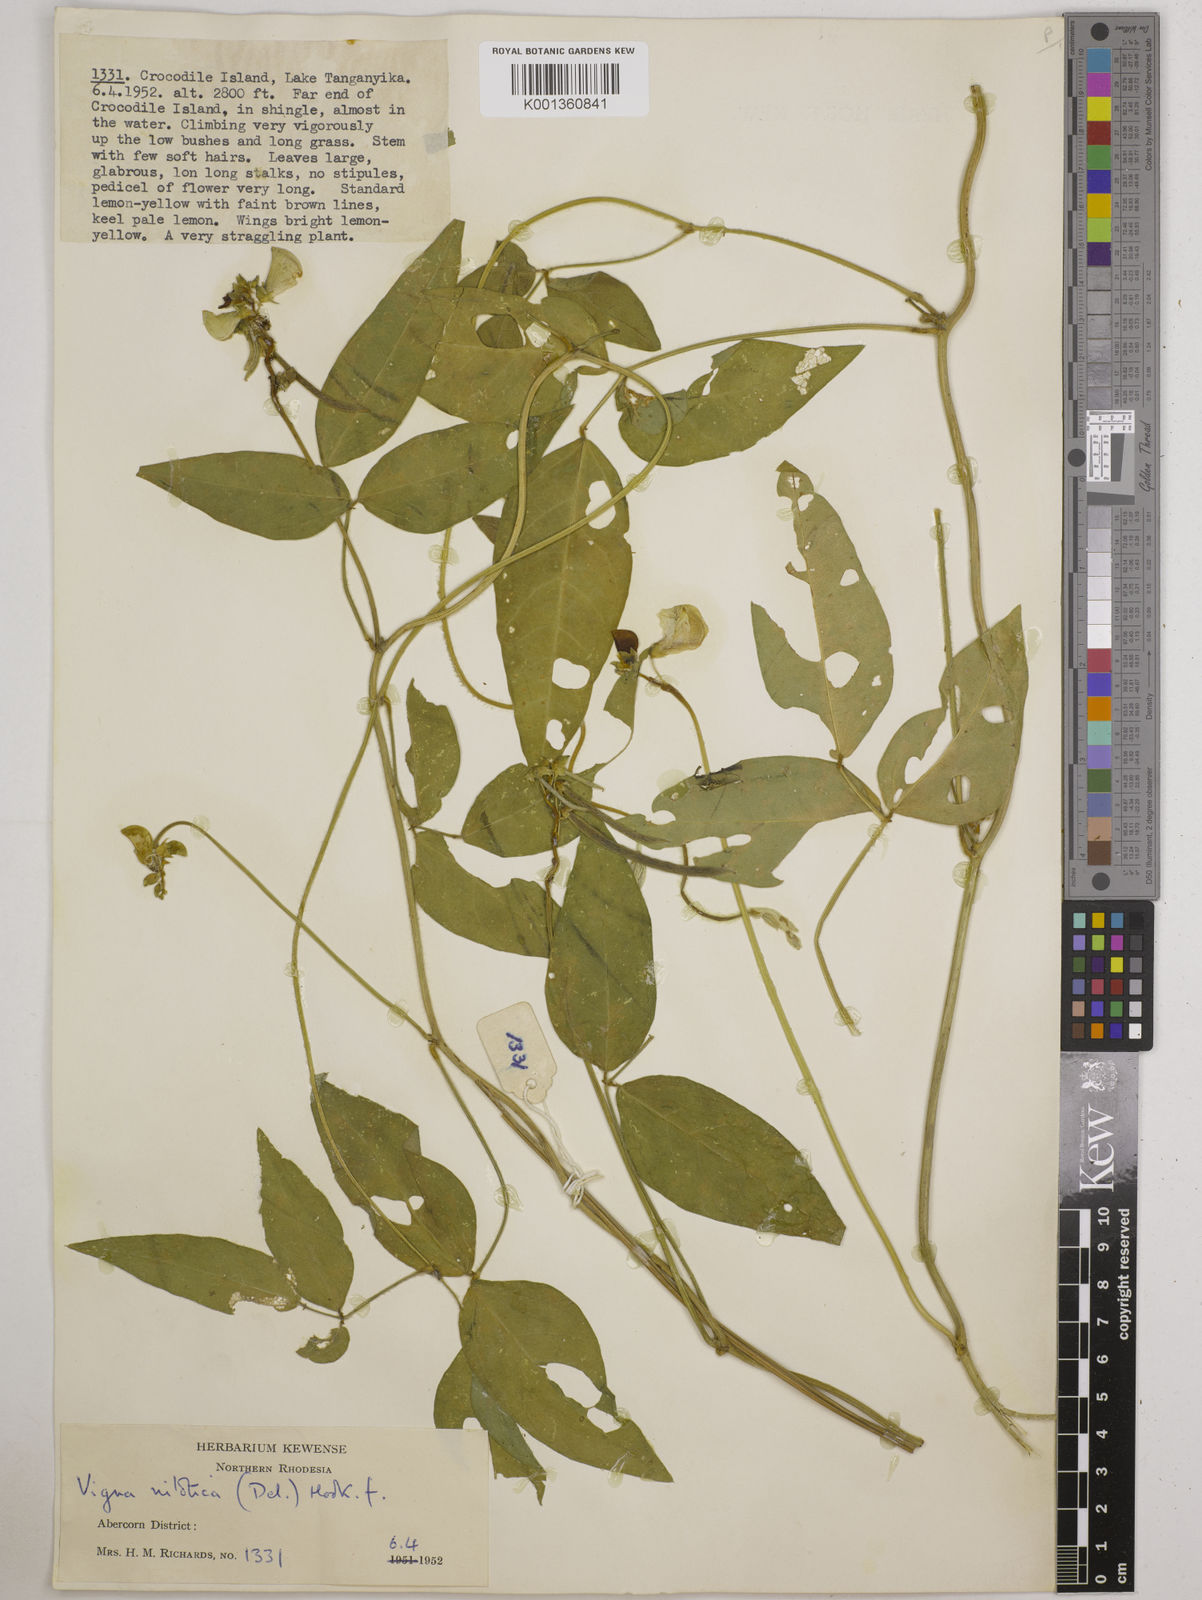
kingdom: Plantae
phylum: Tracheophyta
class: Magnoliopsida
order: Fabales
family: Fabaceae
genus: Vigna
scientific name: Vigna luteola
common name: Hairypod cowpea
